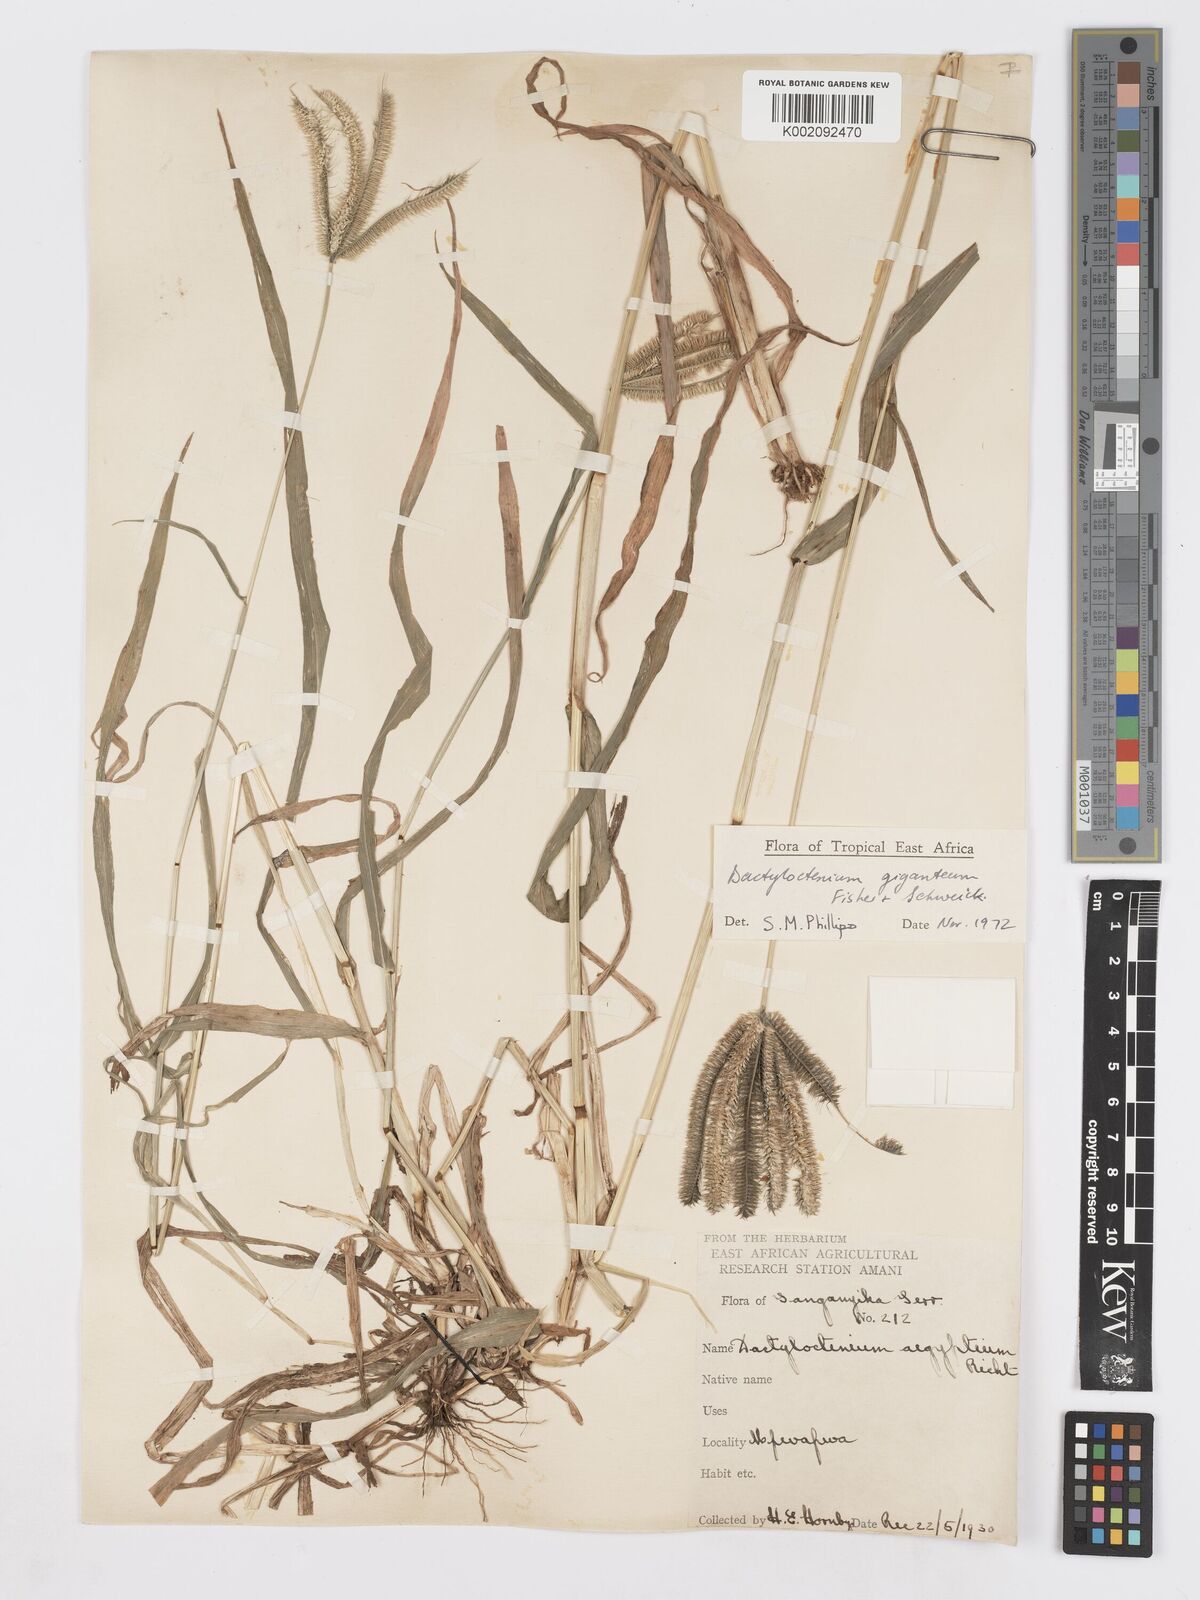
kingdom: Plantae
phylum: Tracheophyta
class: Liliopsida
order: Poales
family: Poaceae
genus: Dactyloctenium
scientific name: Dactyloctenium giganteum
